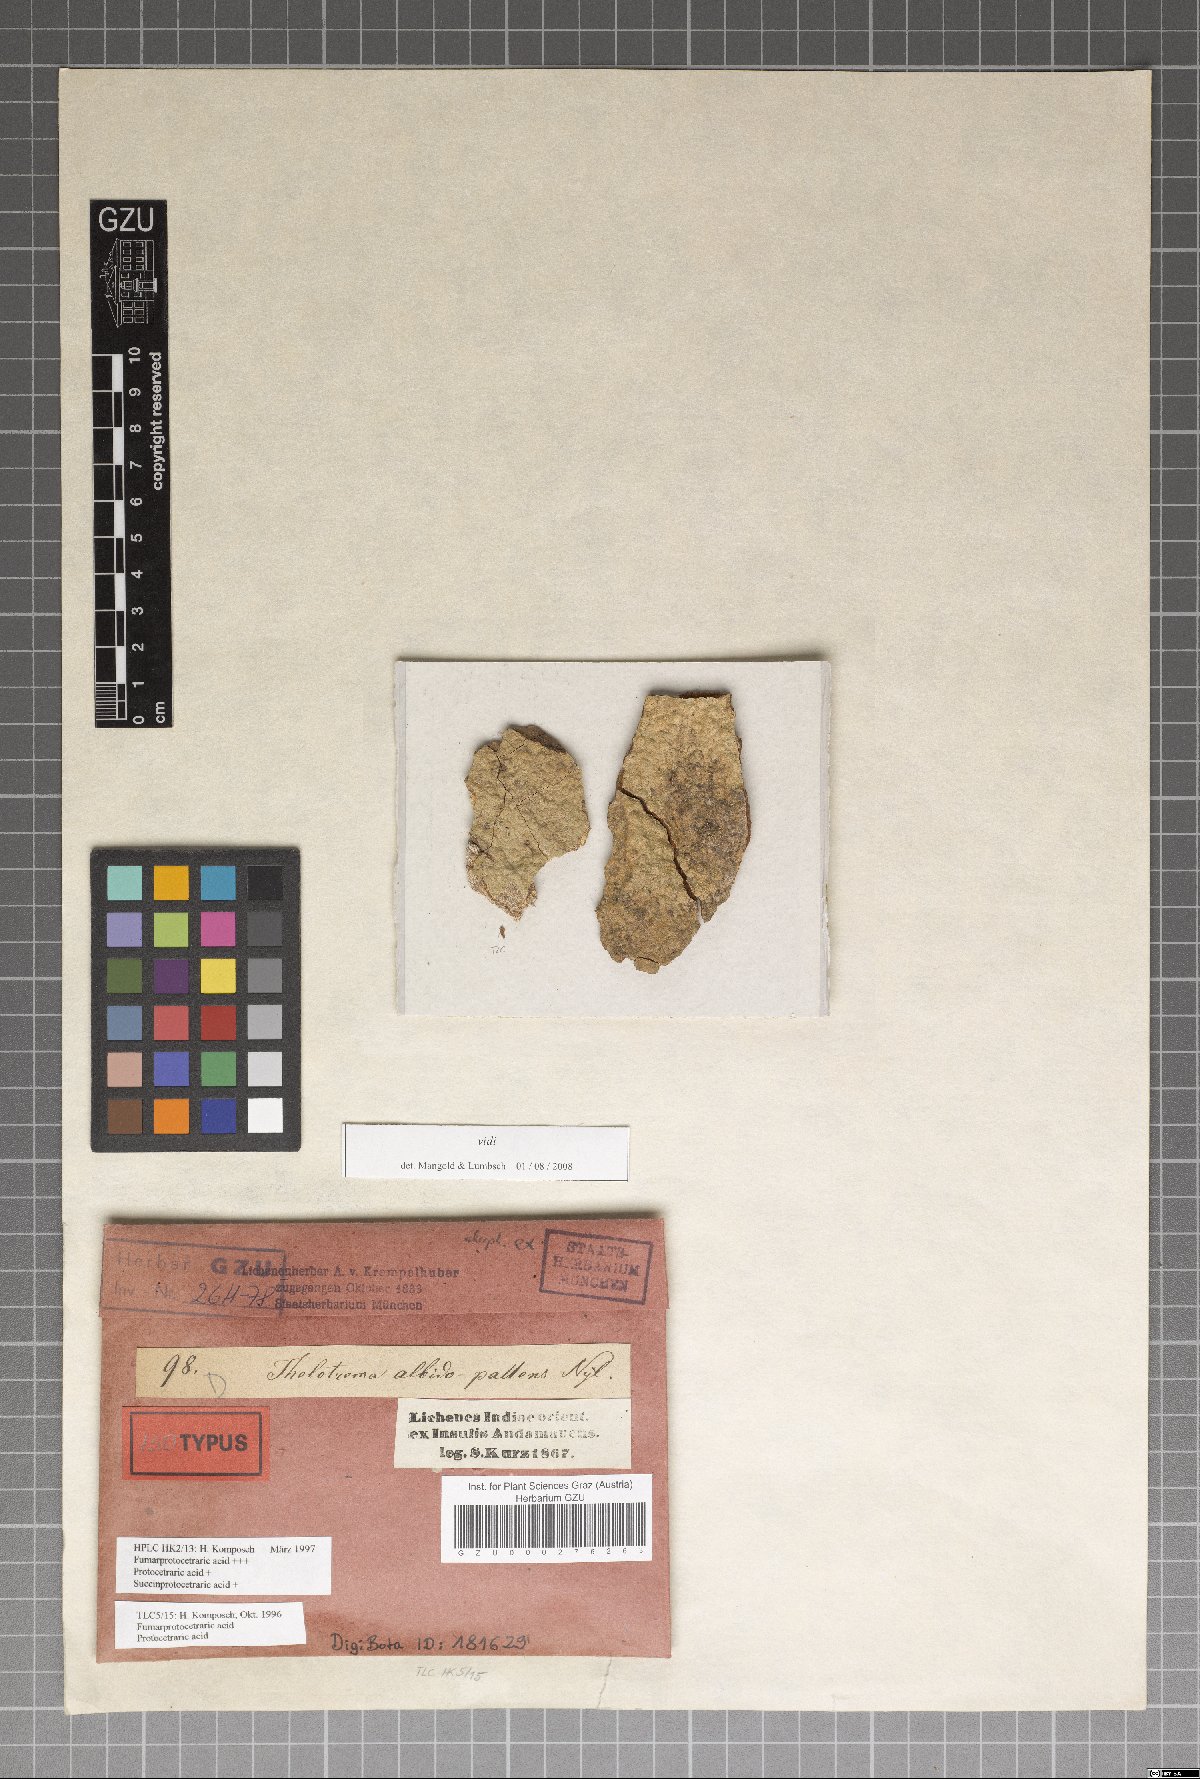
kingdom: Fungi
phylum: Ascomycota
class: Lecanoromycetes
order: Ostropales
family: Graphidaceae
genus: Thelotrema
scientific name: Thelotrema albidopallens
